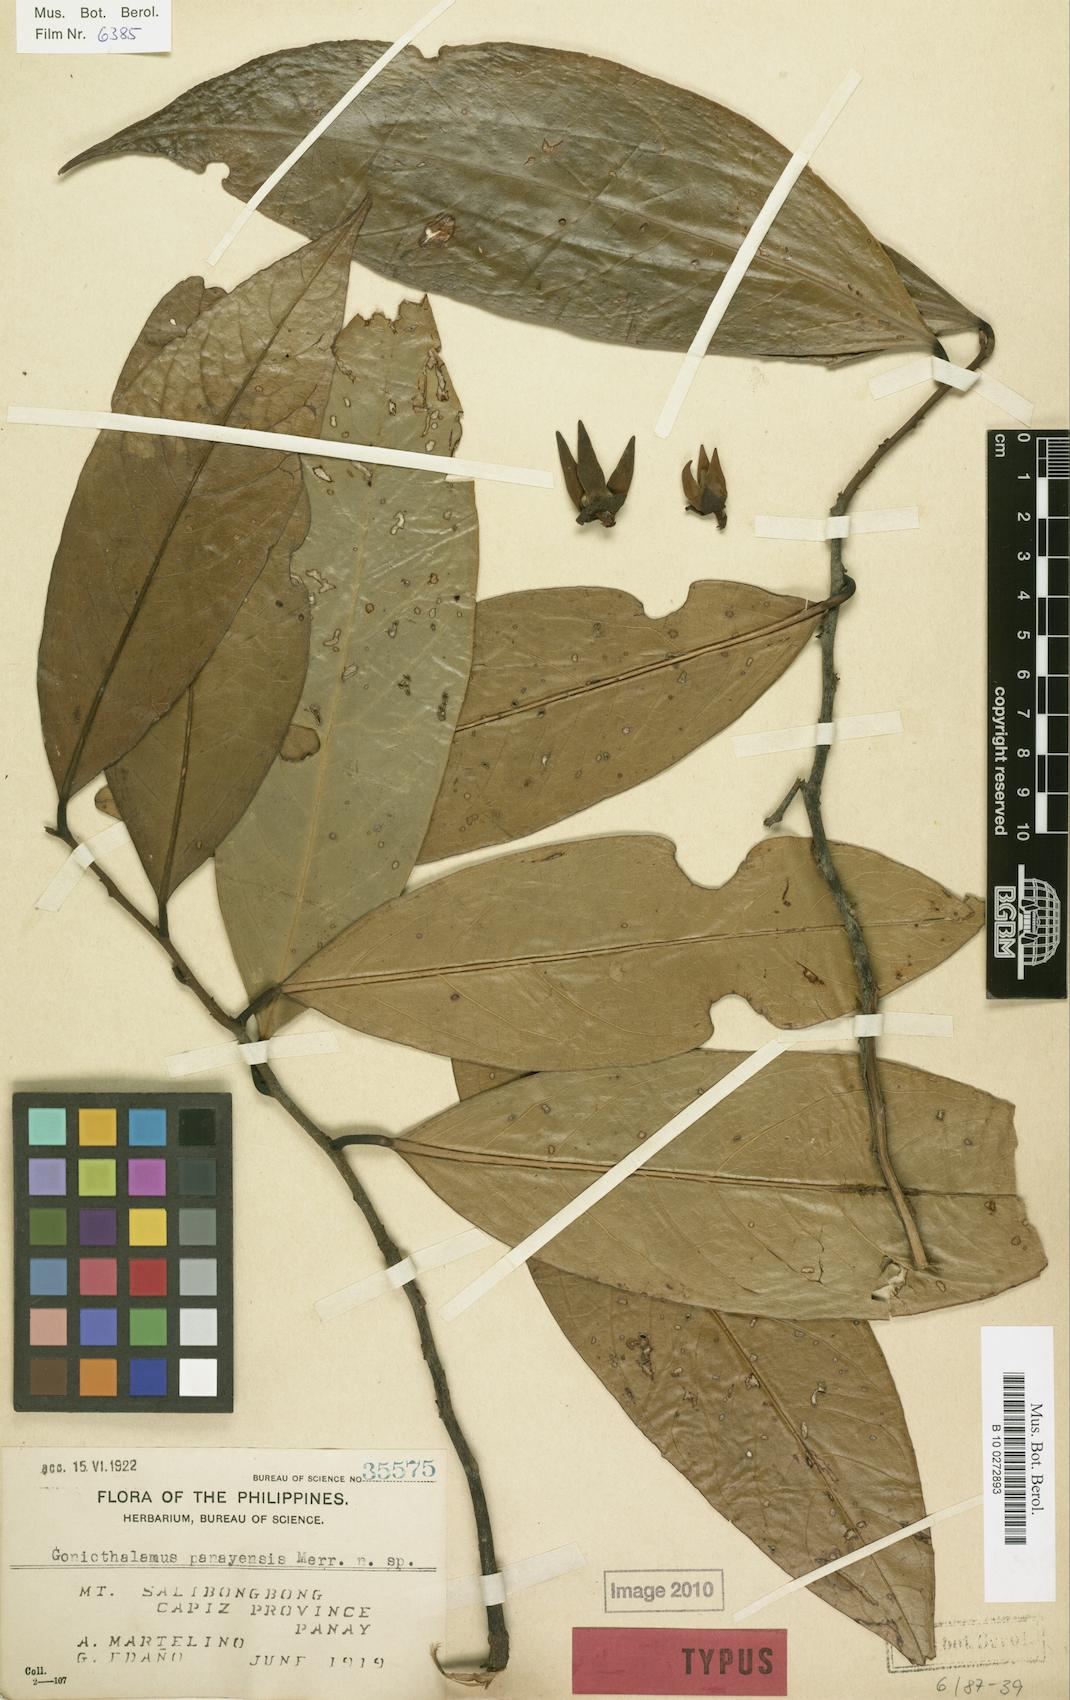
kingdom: Plantae
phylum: Tracheophyta
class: Magnoliopsida
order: Magnoliales
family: Annonaceae
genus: Goniothalamus
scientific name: Goniothalamus panayensis
